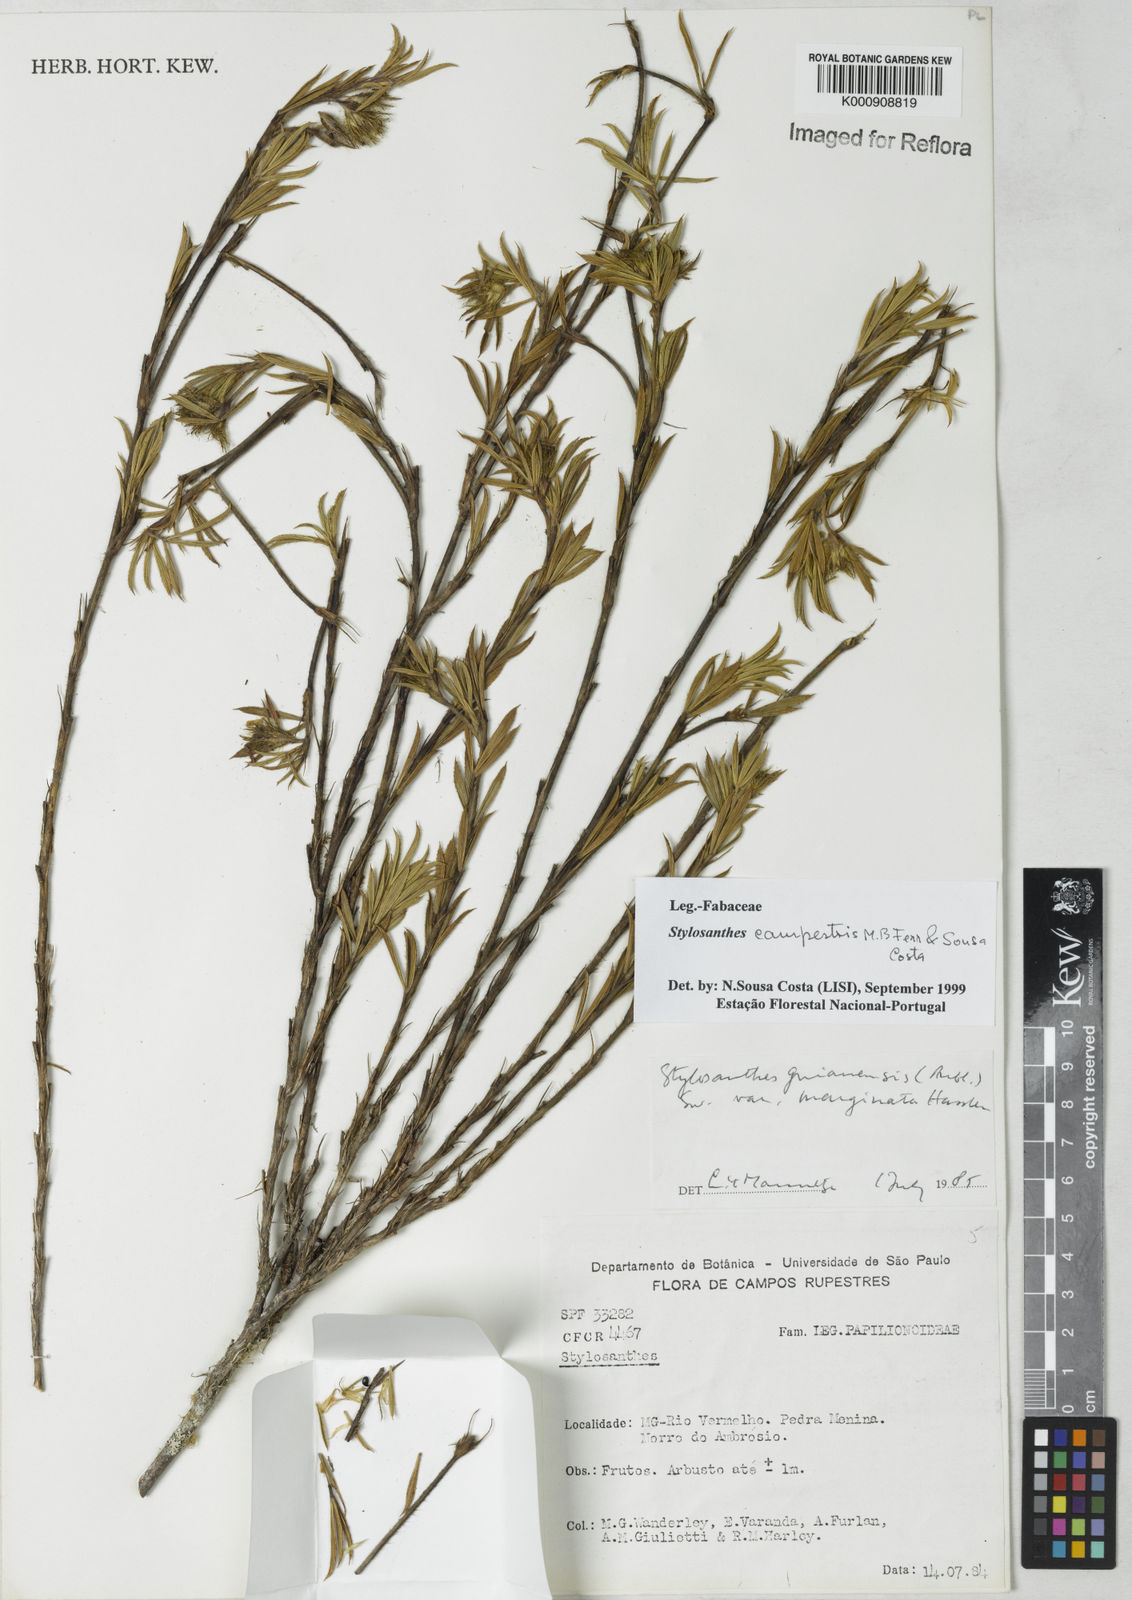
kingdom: Plantae
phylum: Tracheophyta
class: Magnoliopsida
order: Fabales
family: Fabaceae
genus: Stylosanthes
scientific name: Stylosanthes campestris
